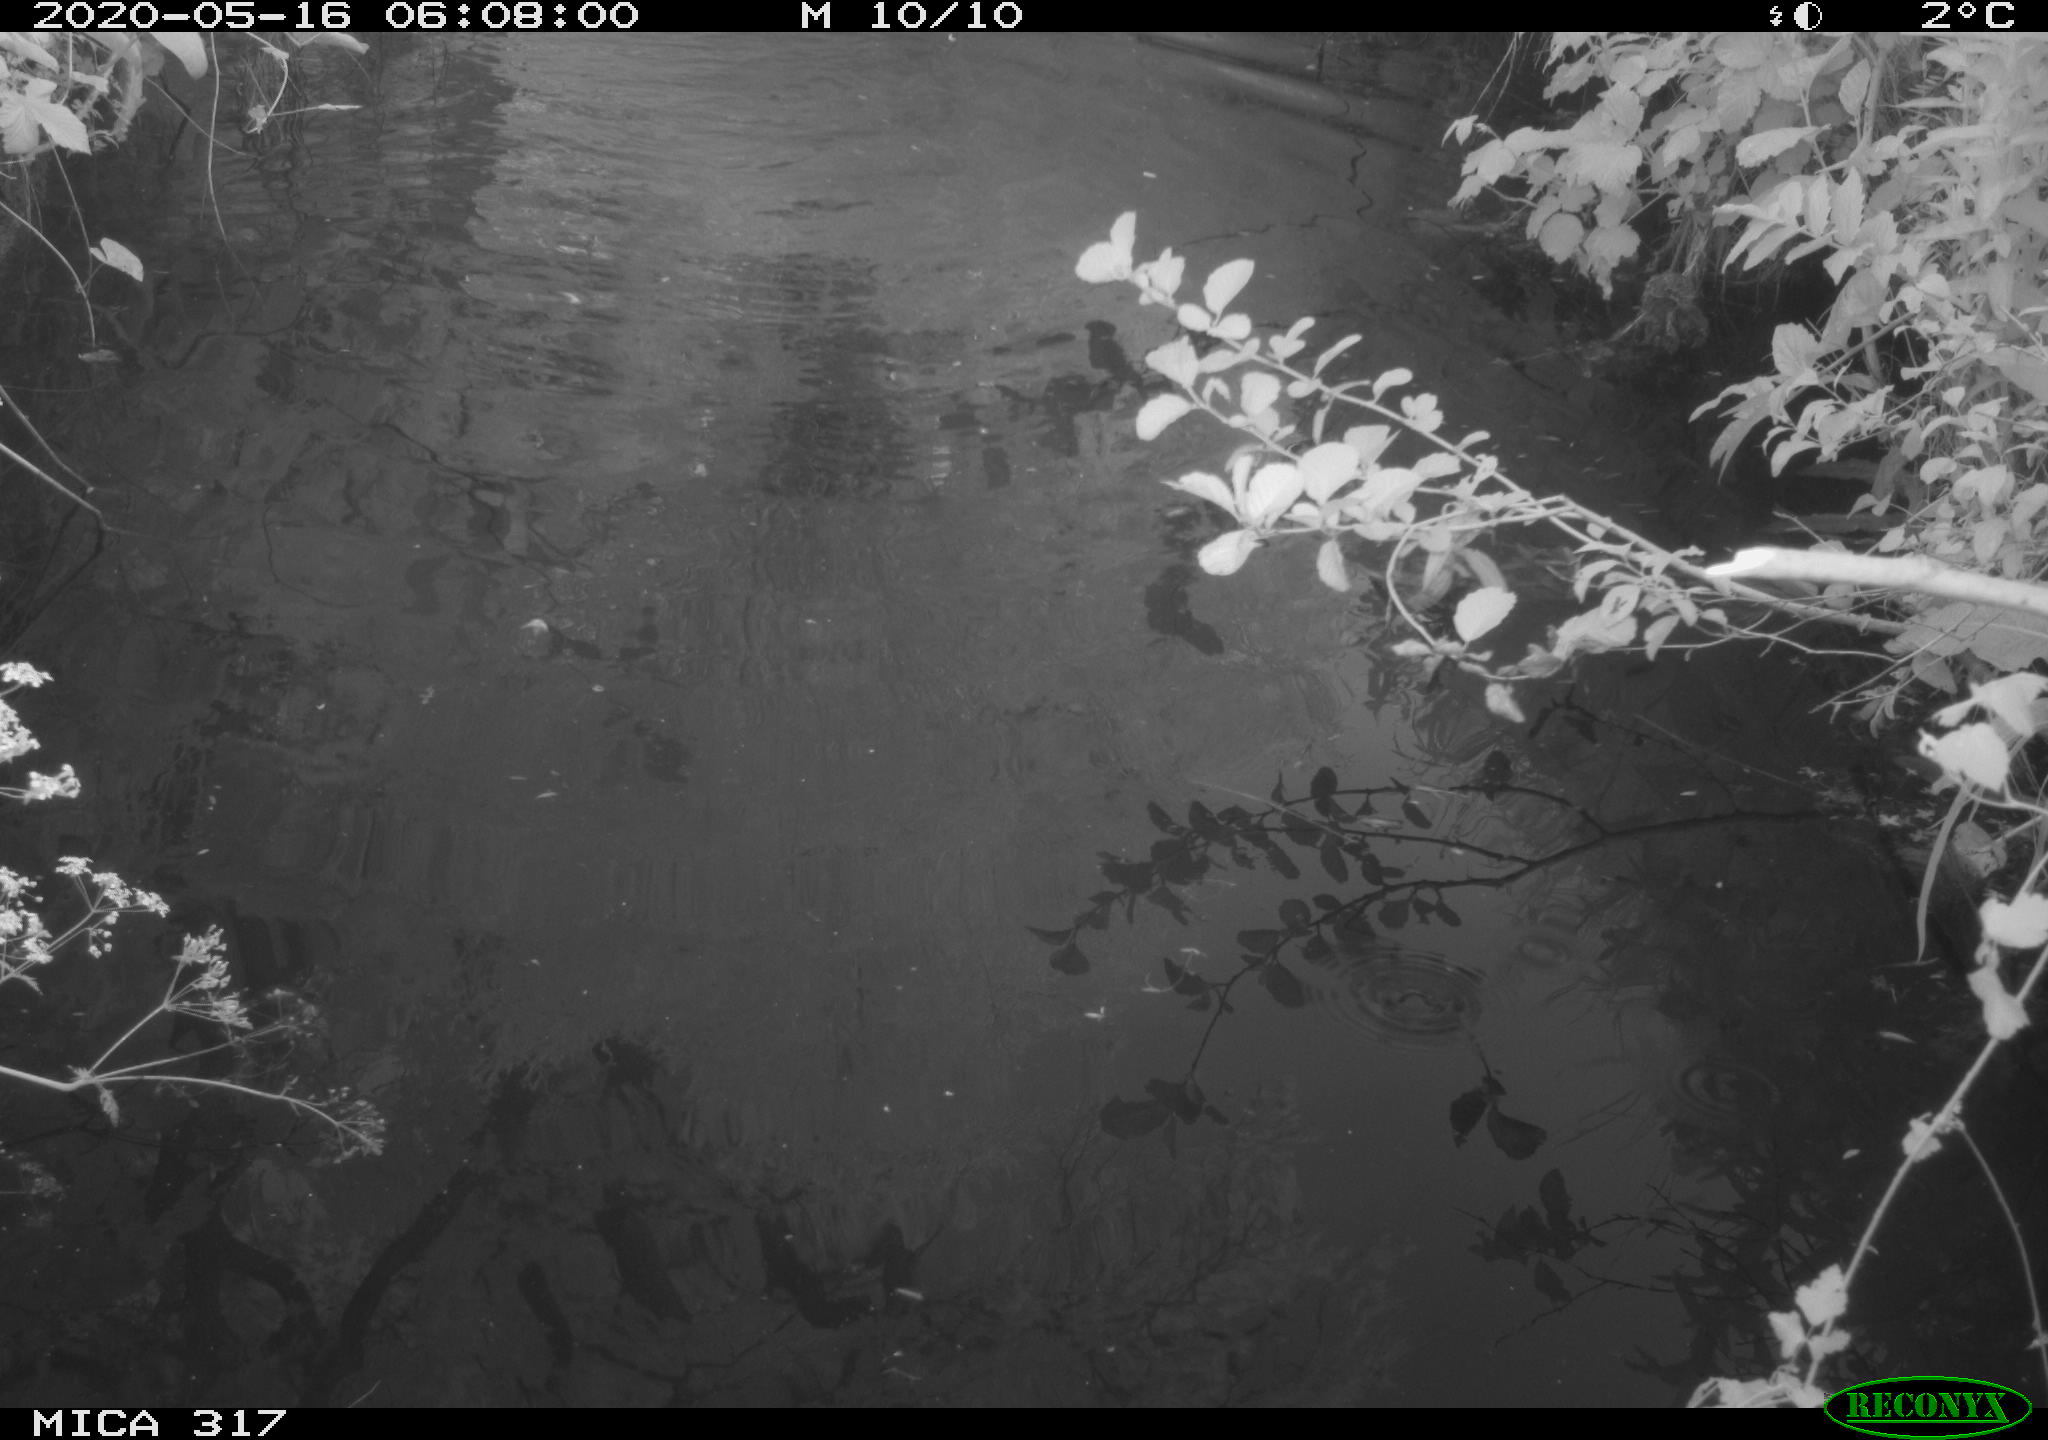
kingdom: Animalia
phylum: Chordata
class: Aves
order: Anseriformes
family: Anatidae
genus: Anas
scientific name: Anas platyrhynchos
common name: Mallard
